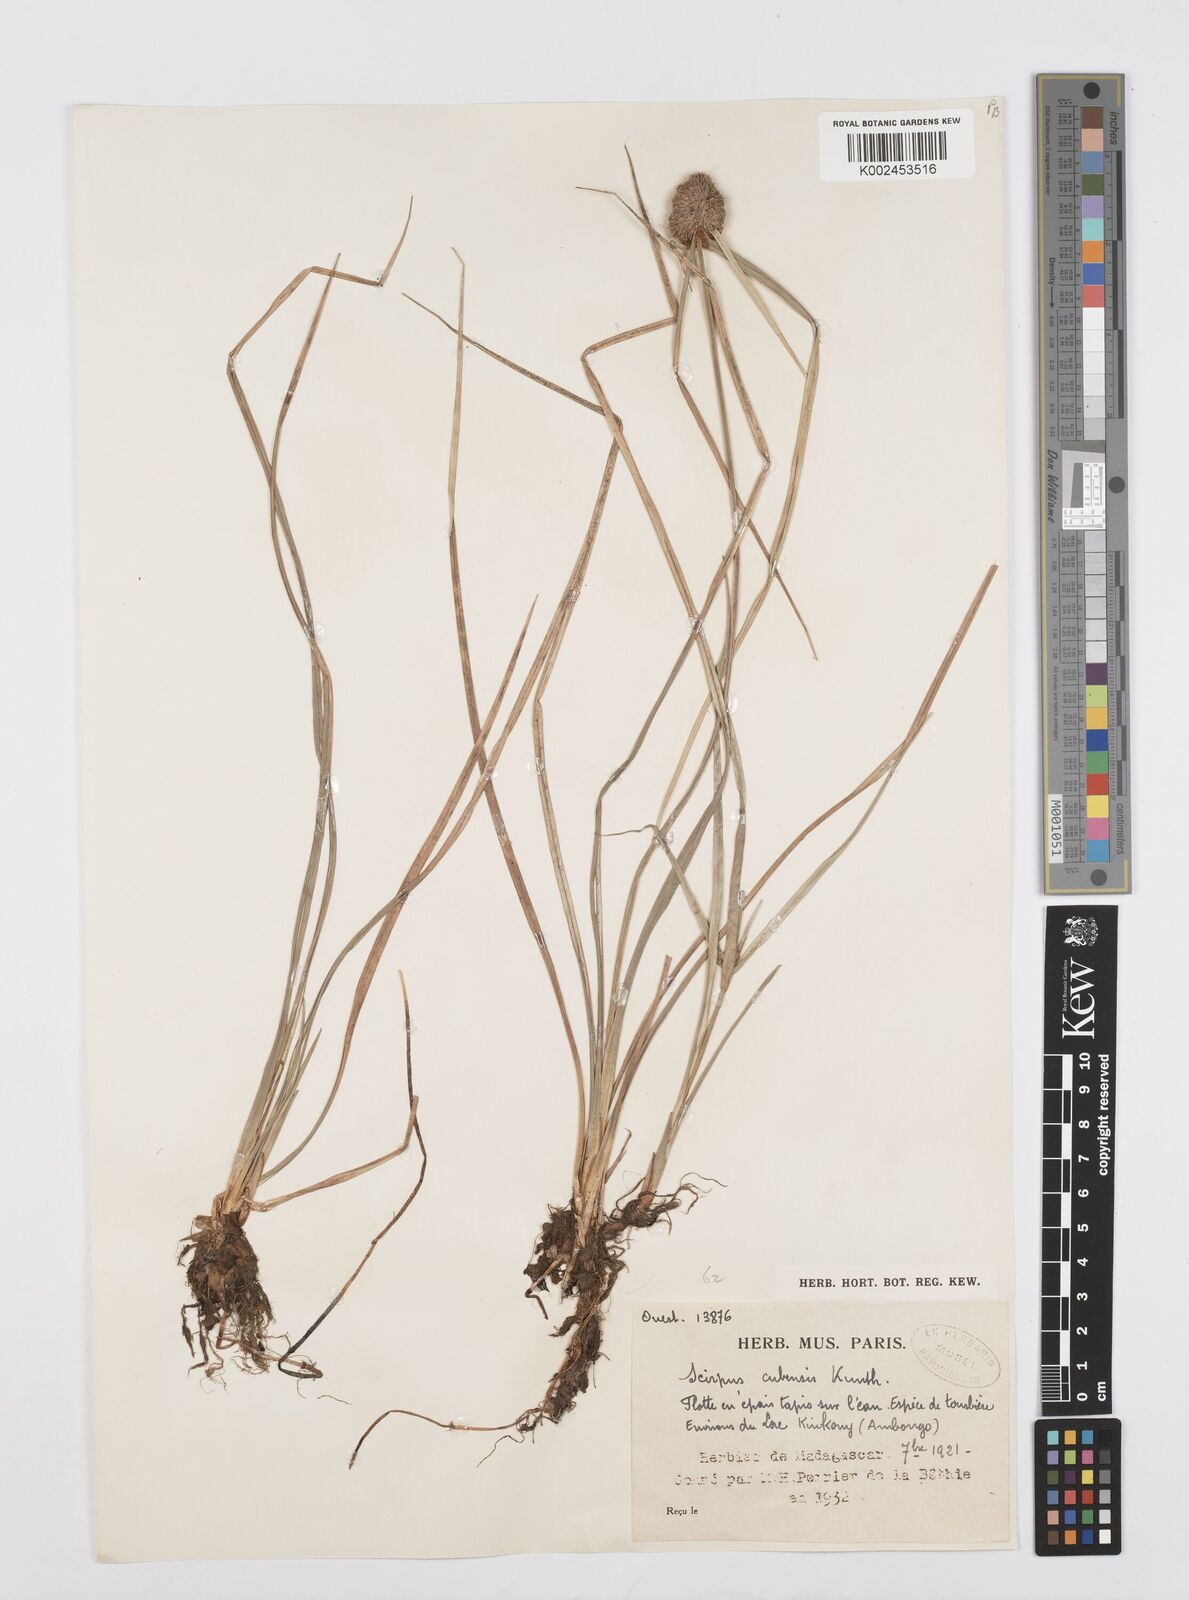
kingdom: Plantae
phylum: Tracheophyta
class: Liliopsida
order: Poales
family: Cyperaceae
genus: Cyperus
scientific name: Cyperus elegans
